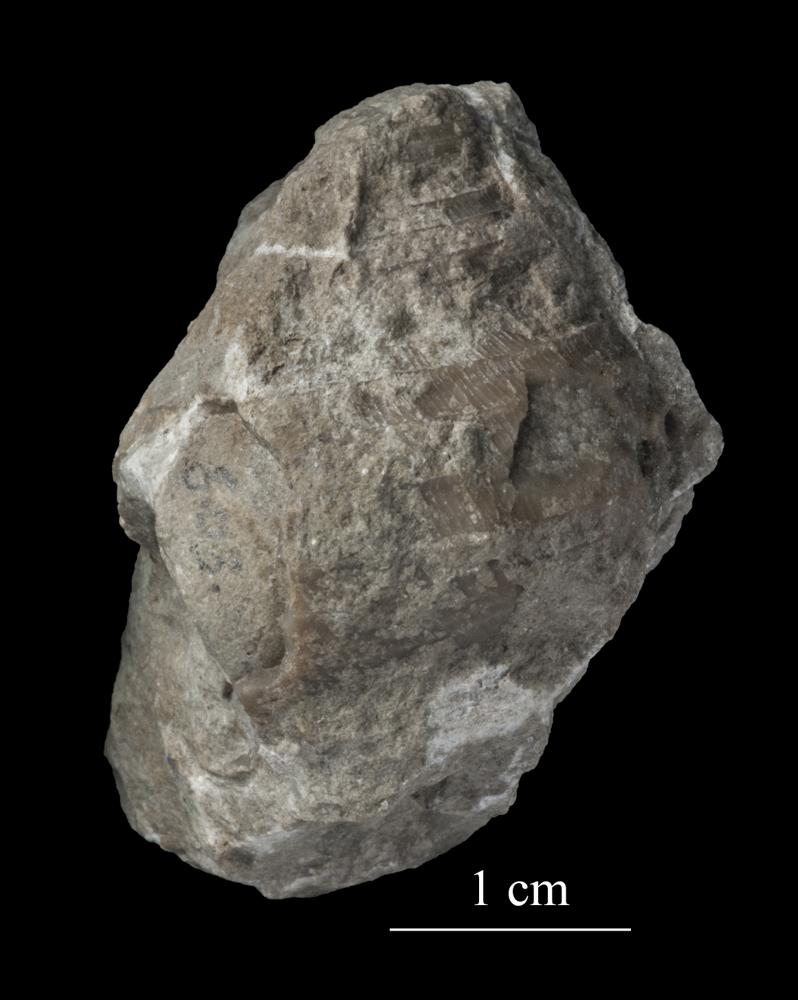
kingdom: Animalia
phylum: Mollusca
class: Gastropoda
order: Trochida
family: Trochidae
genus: Trochus
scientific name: Trochus
